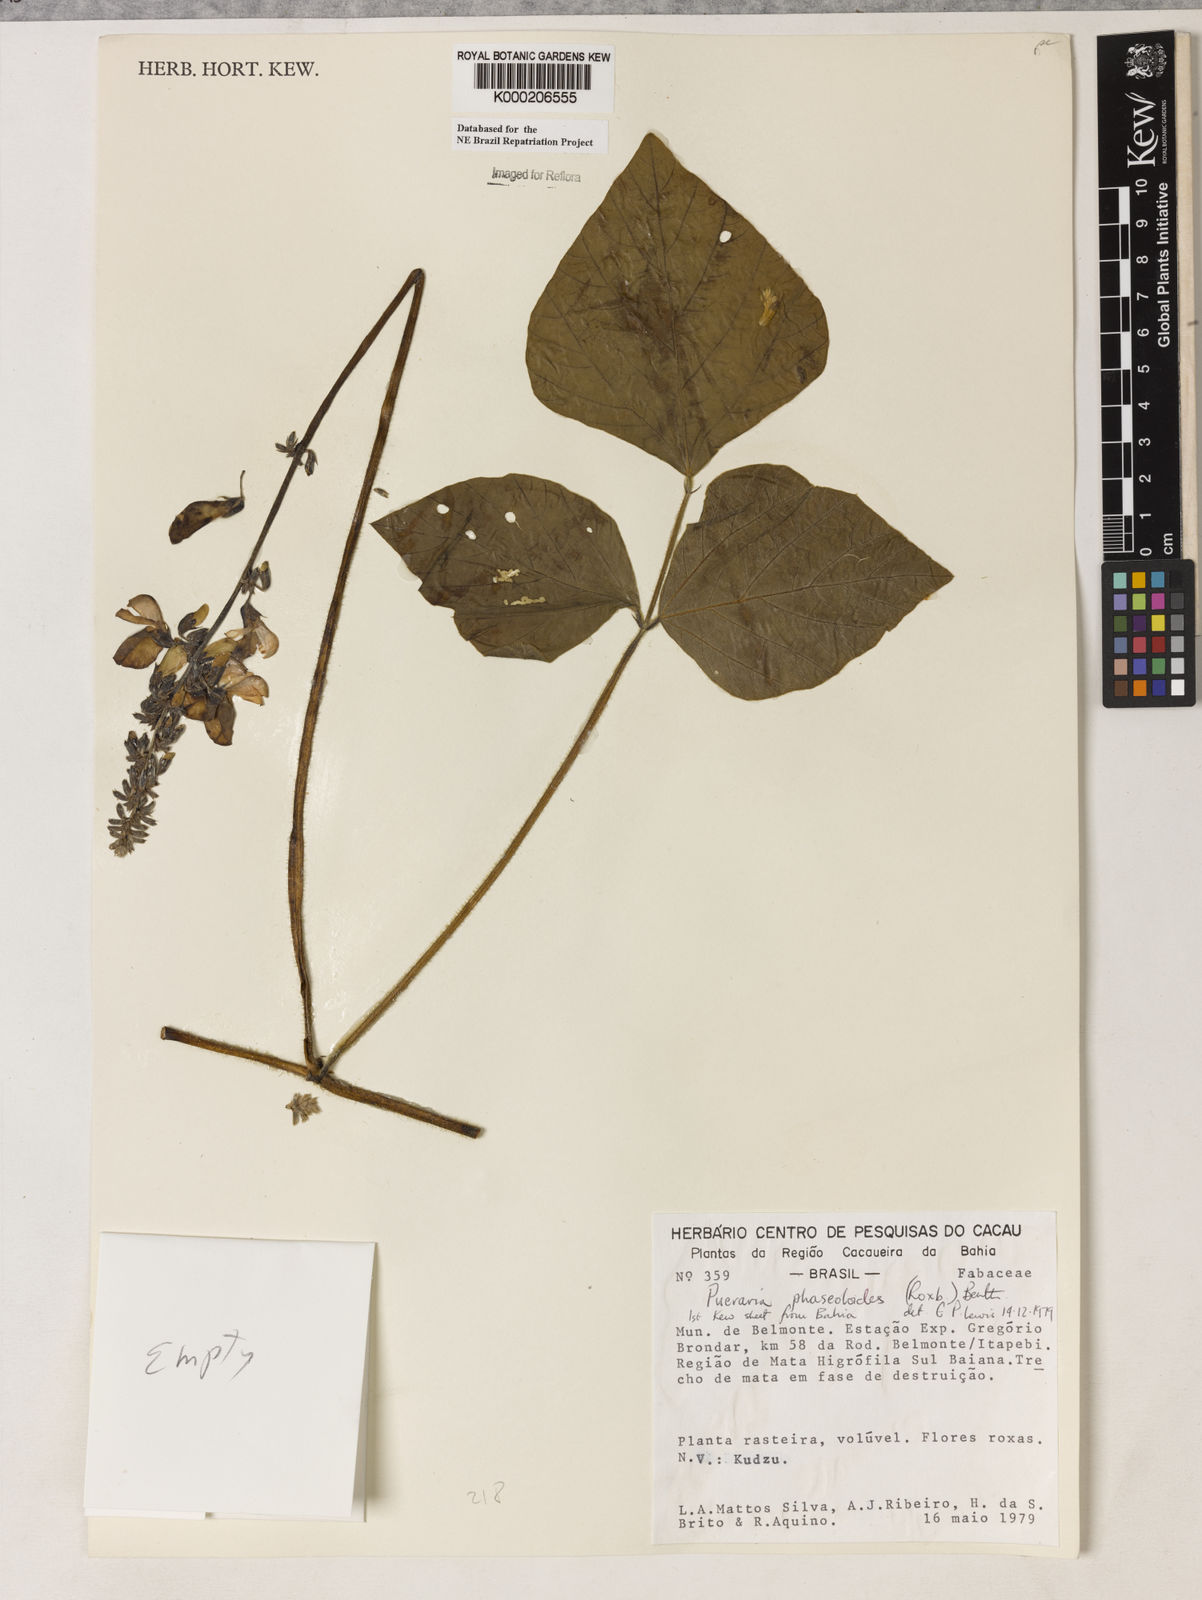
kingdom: Plantae
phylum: Tracheophyta
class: Magnoliopsida
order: Fabales
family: Fabaceae
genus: Neustanthus
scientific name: Neustanthus phaseoloides
